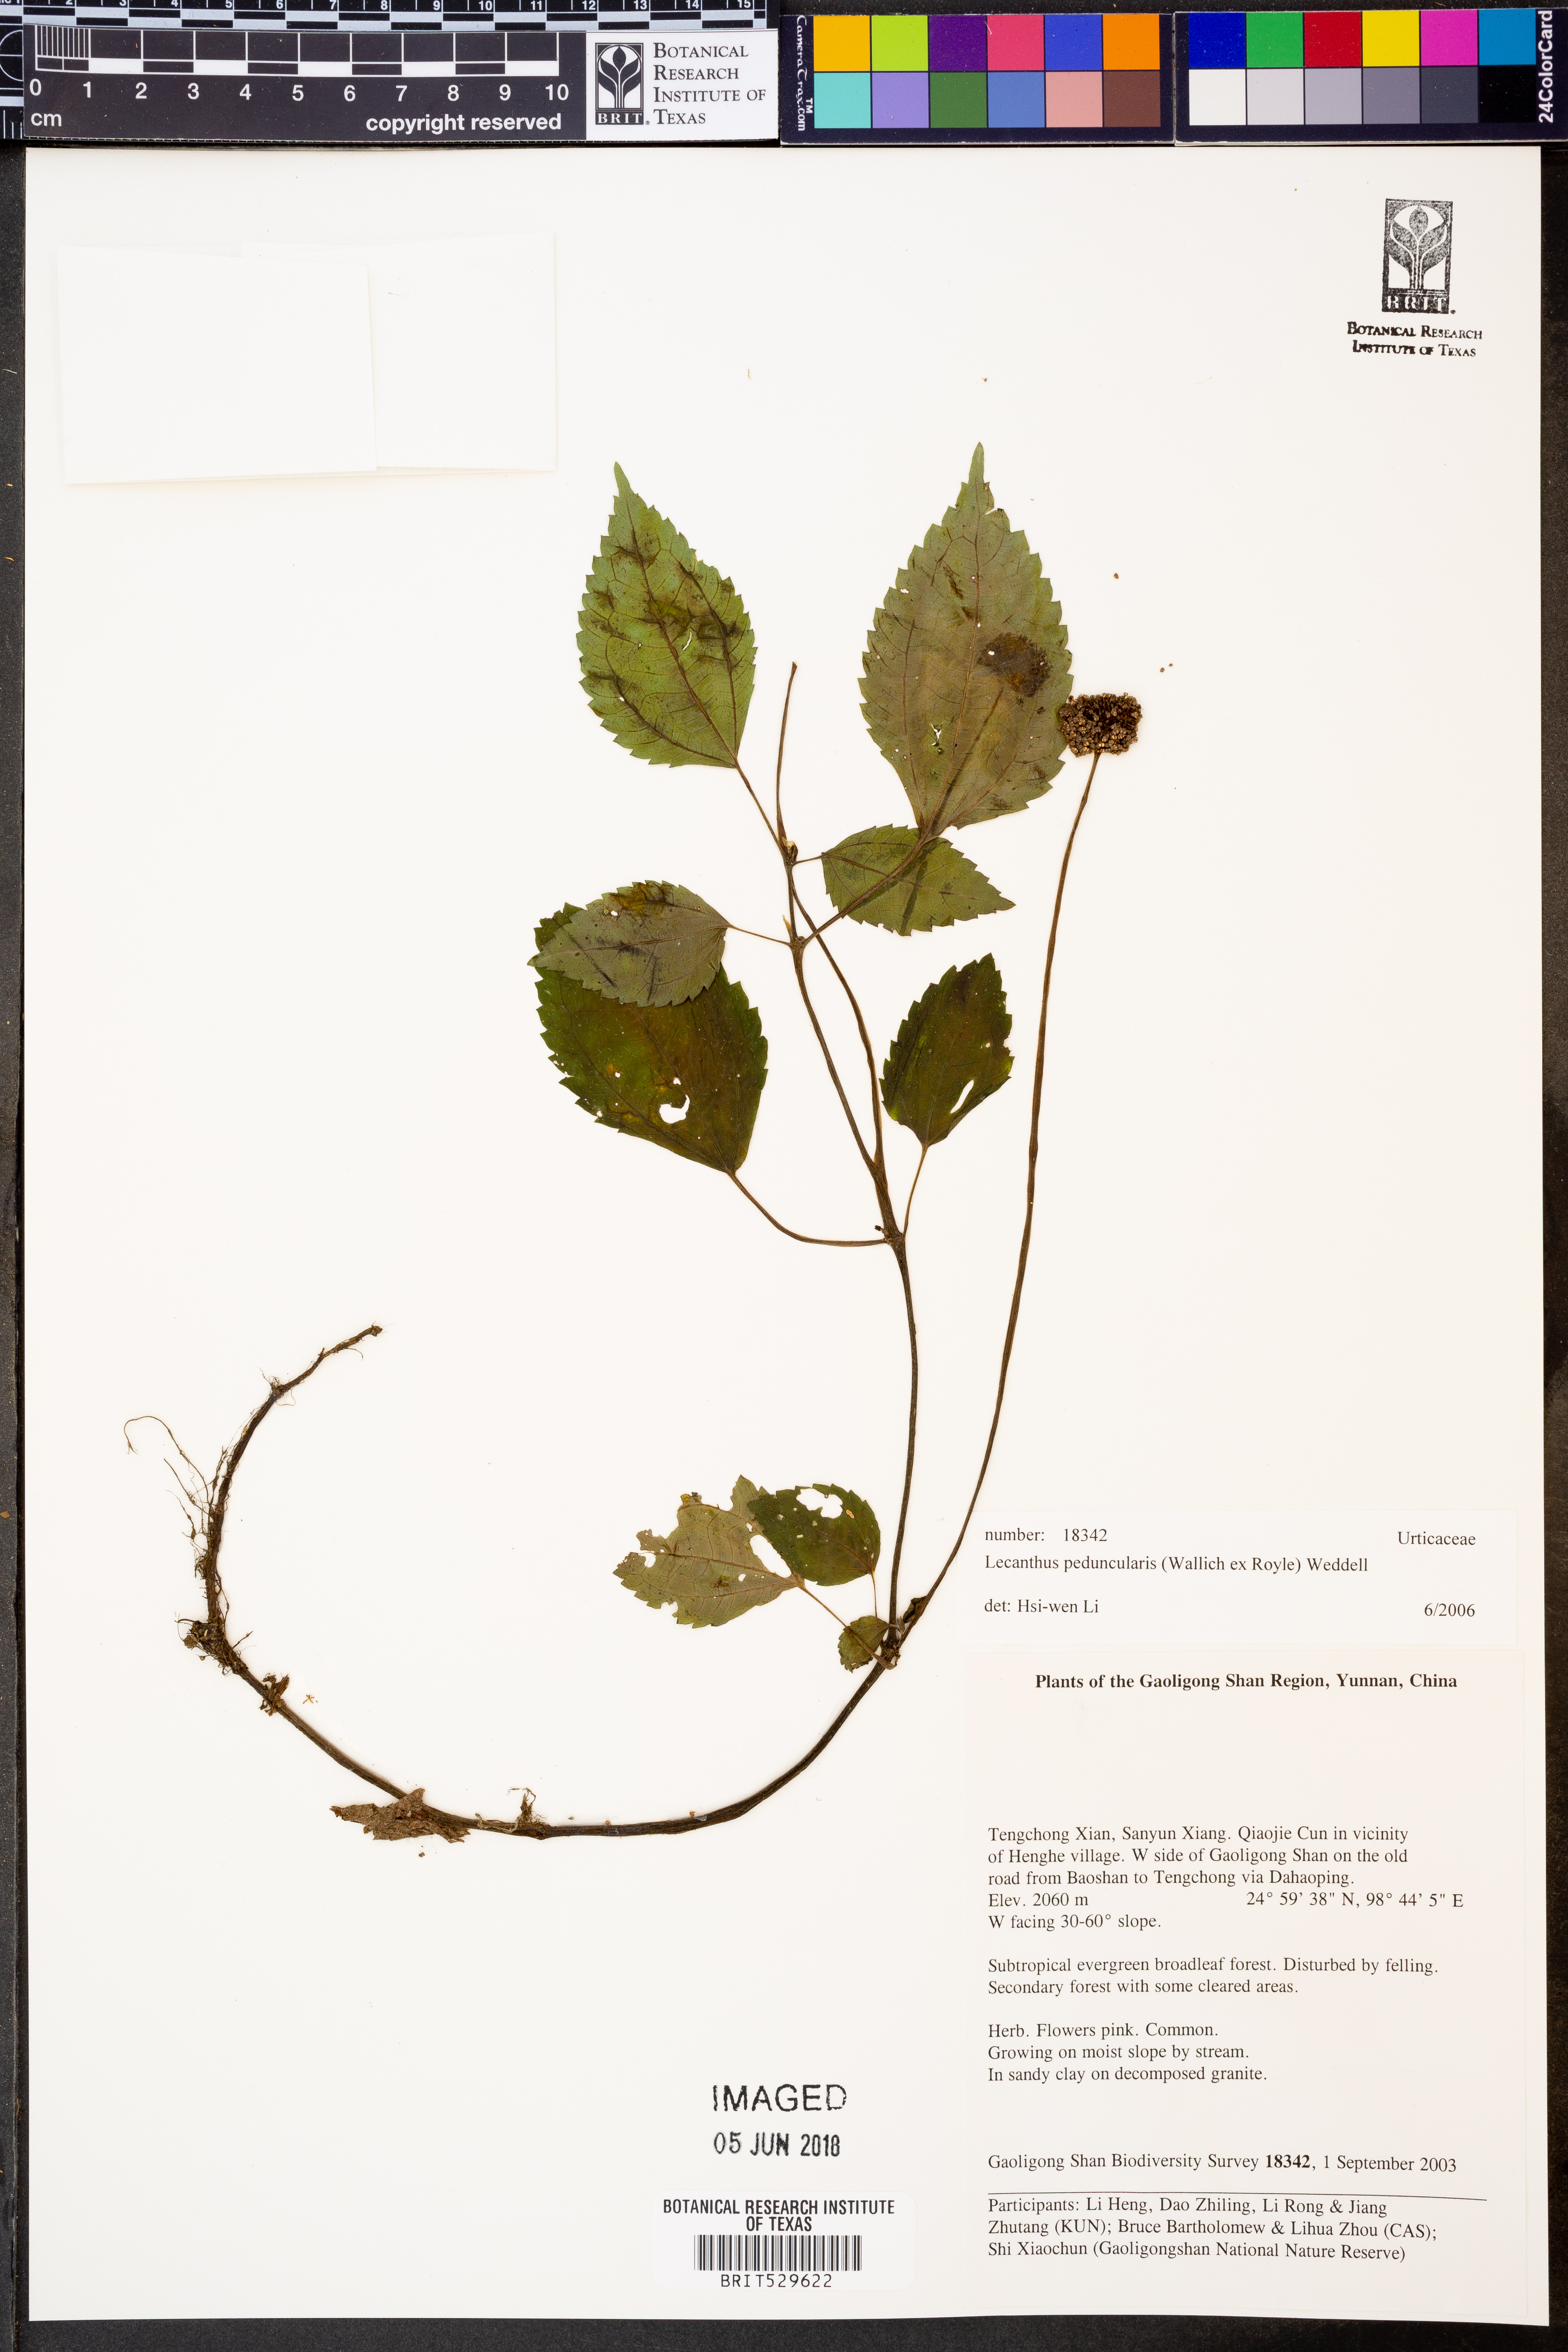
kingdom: Plantae
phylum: Tracheophyta
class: Magnoliopsida
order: Rosales
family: Urticaceae
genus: Lecanthus
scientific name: Lecanthus peduncularis
